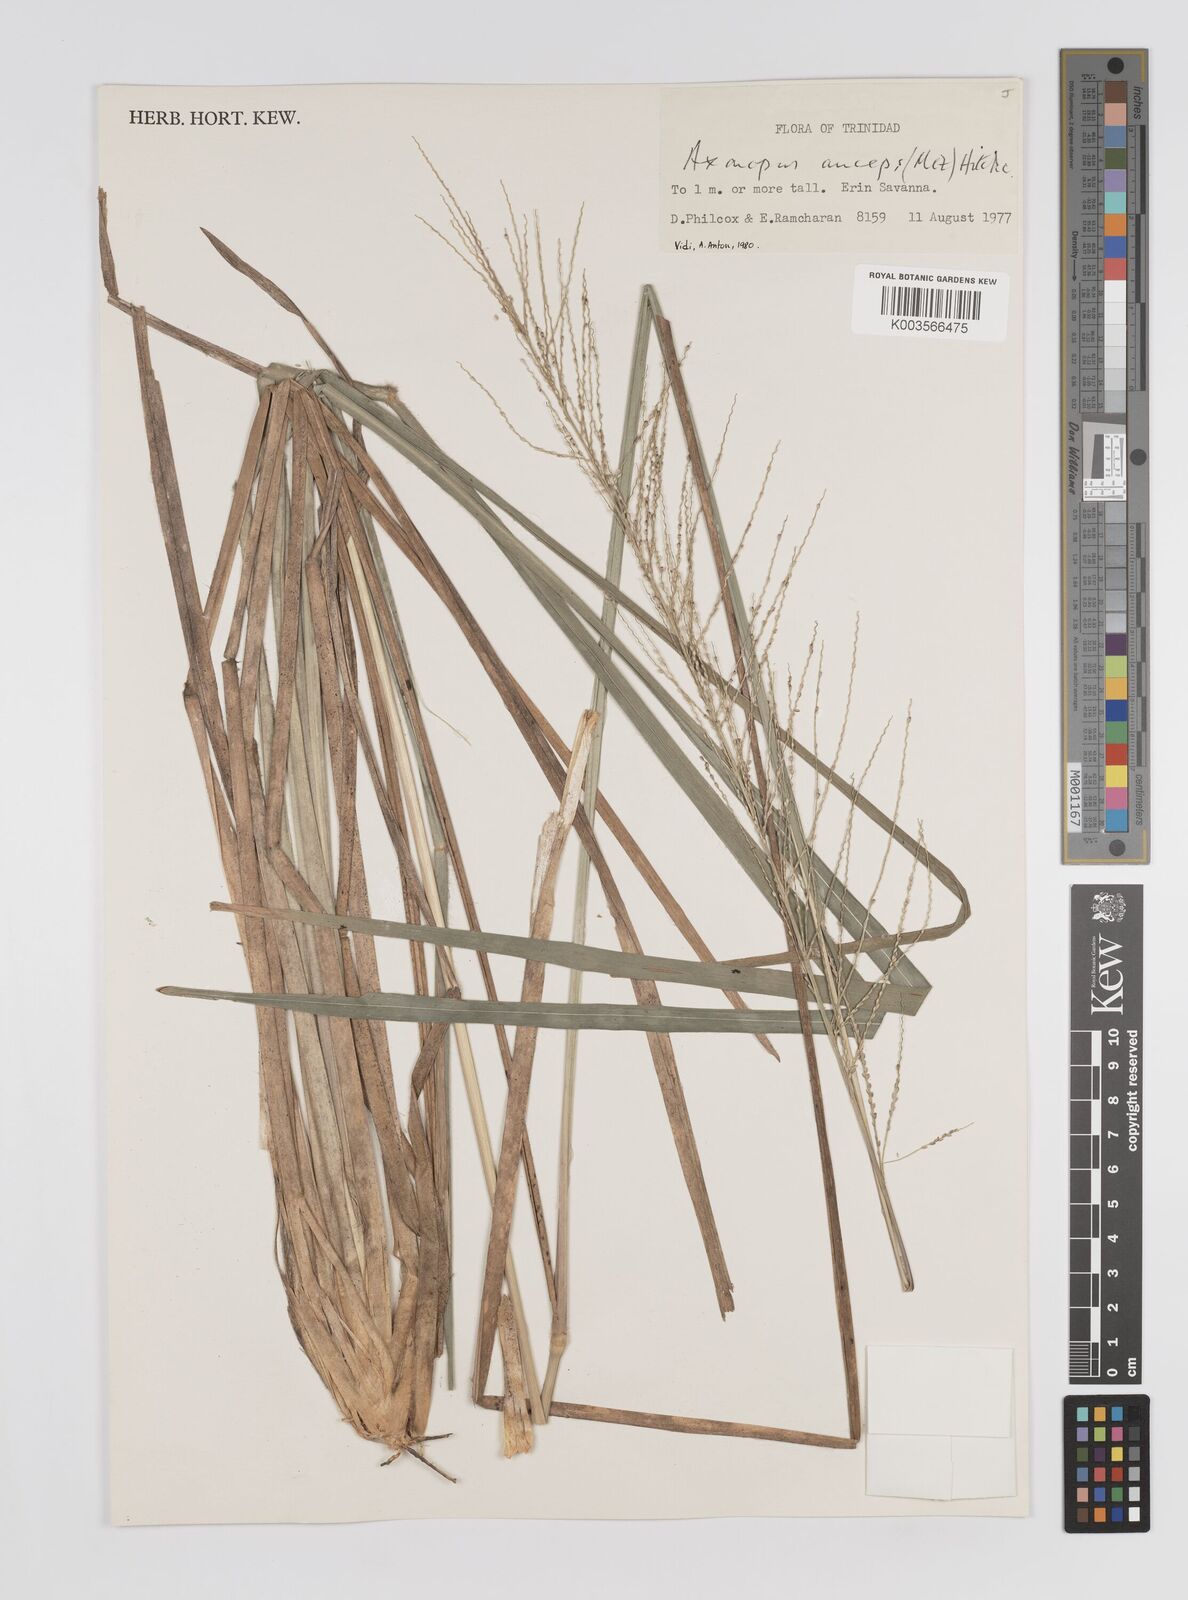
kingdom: Plantae
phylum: Tracheophyta
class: Liliopsida
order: Poales
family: Poaceae
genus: Axonopus
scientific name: Axonopus anceps
